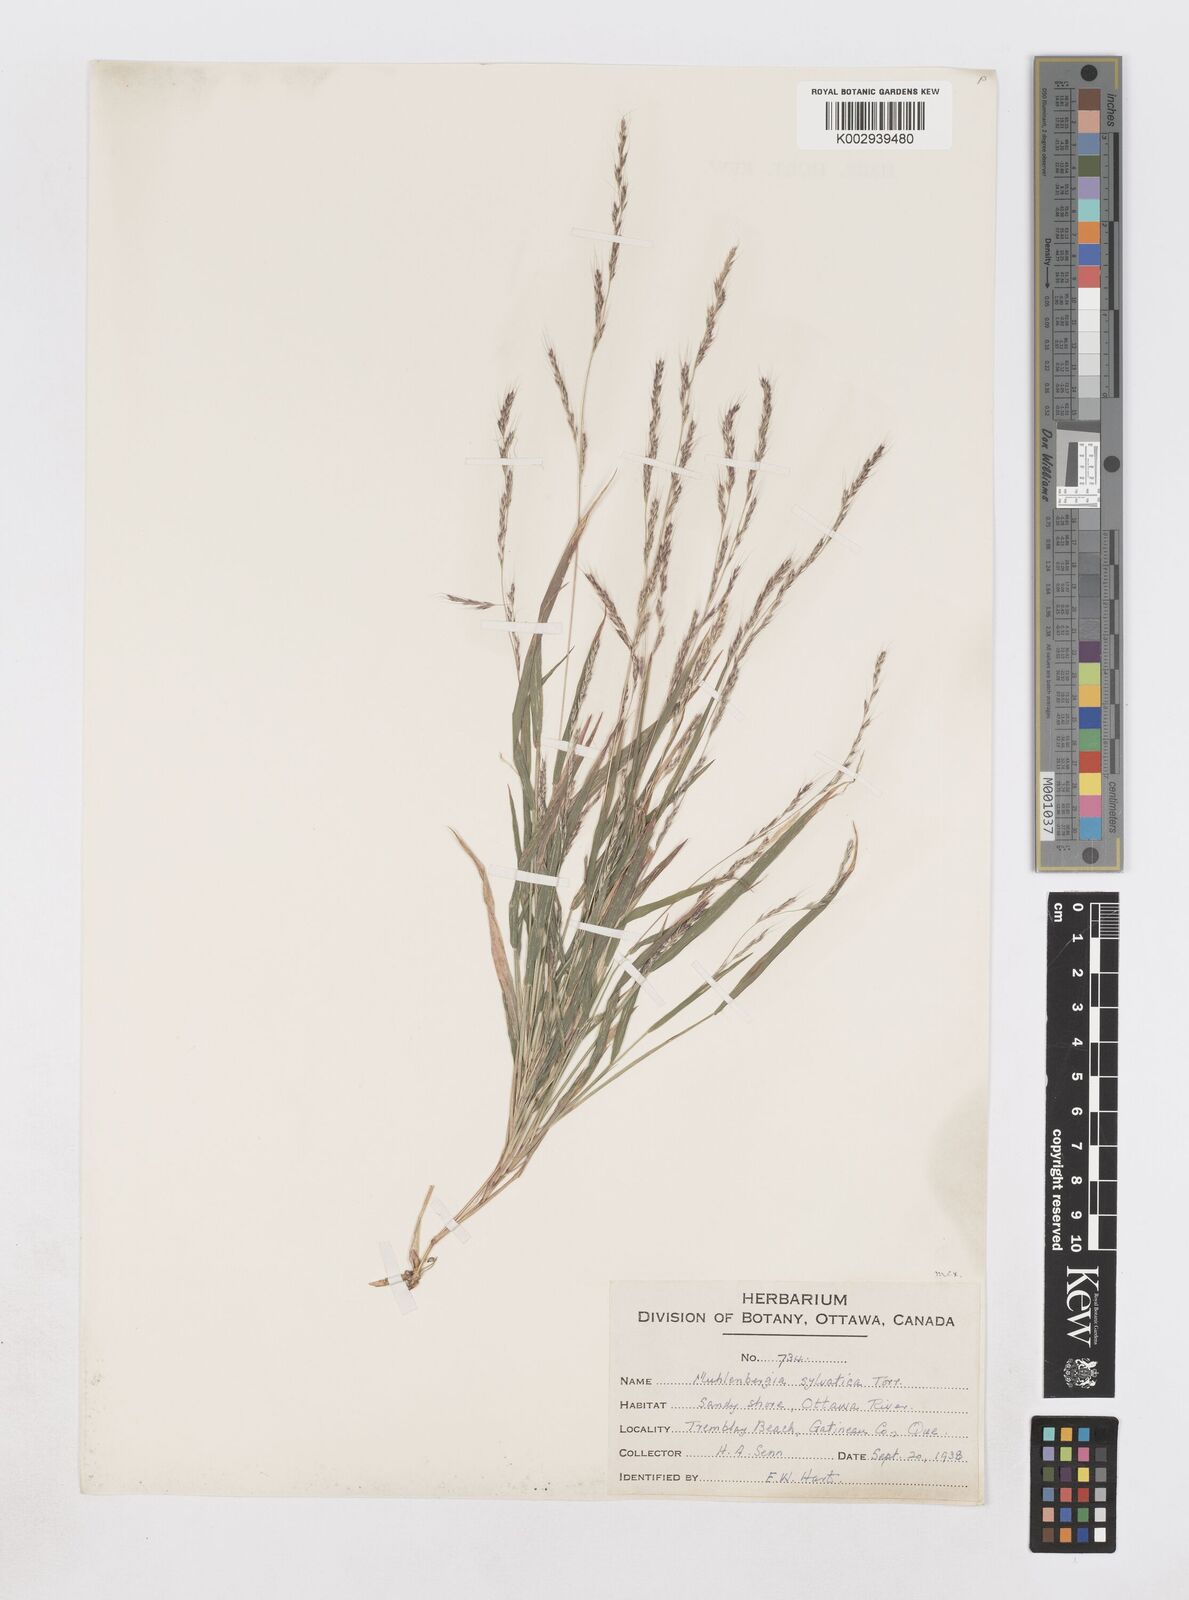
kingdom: Plantae
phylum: Tracheophyta
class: Liliopsida
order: Poales
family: Poaceae
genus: Muhlenbergia
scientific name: Muhlenbergia sylvatica
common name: Woodland muhly
